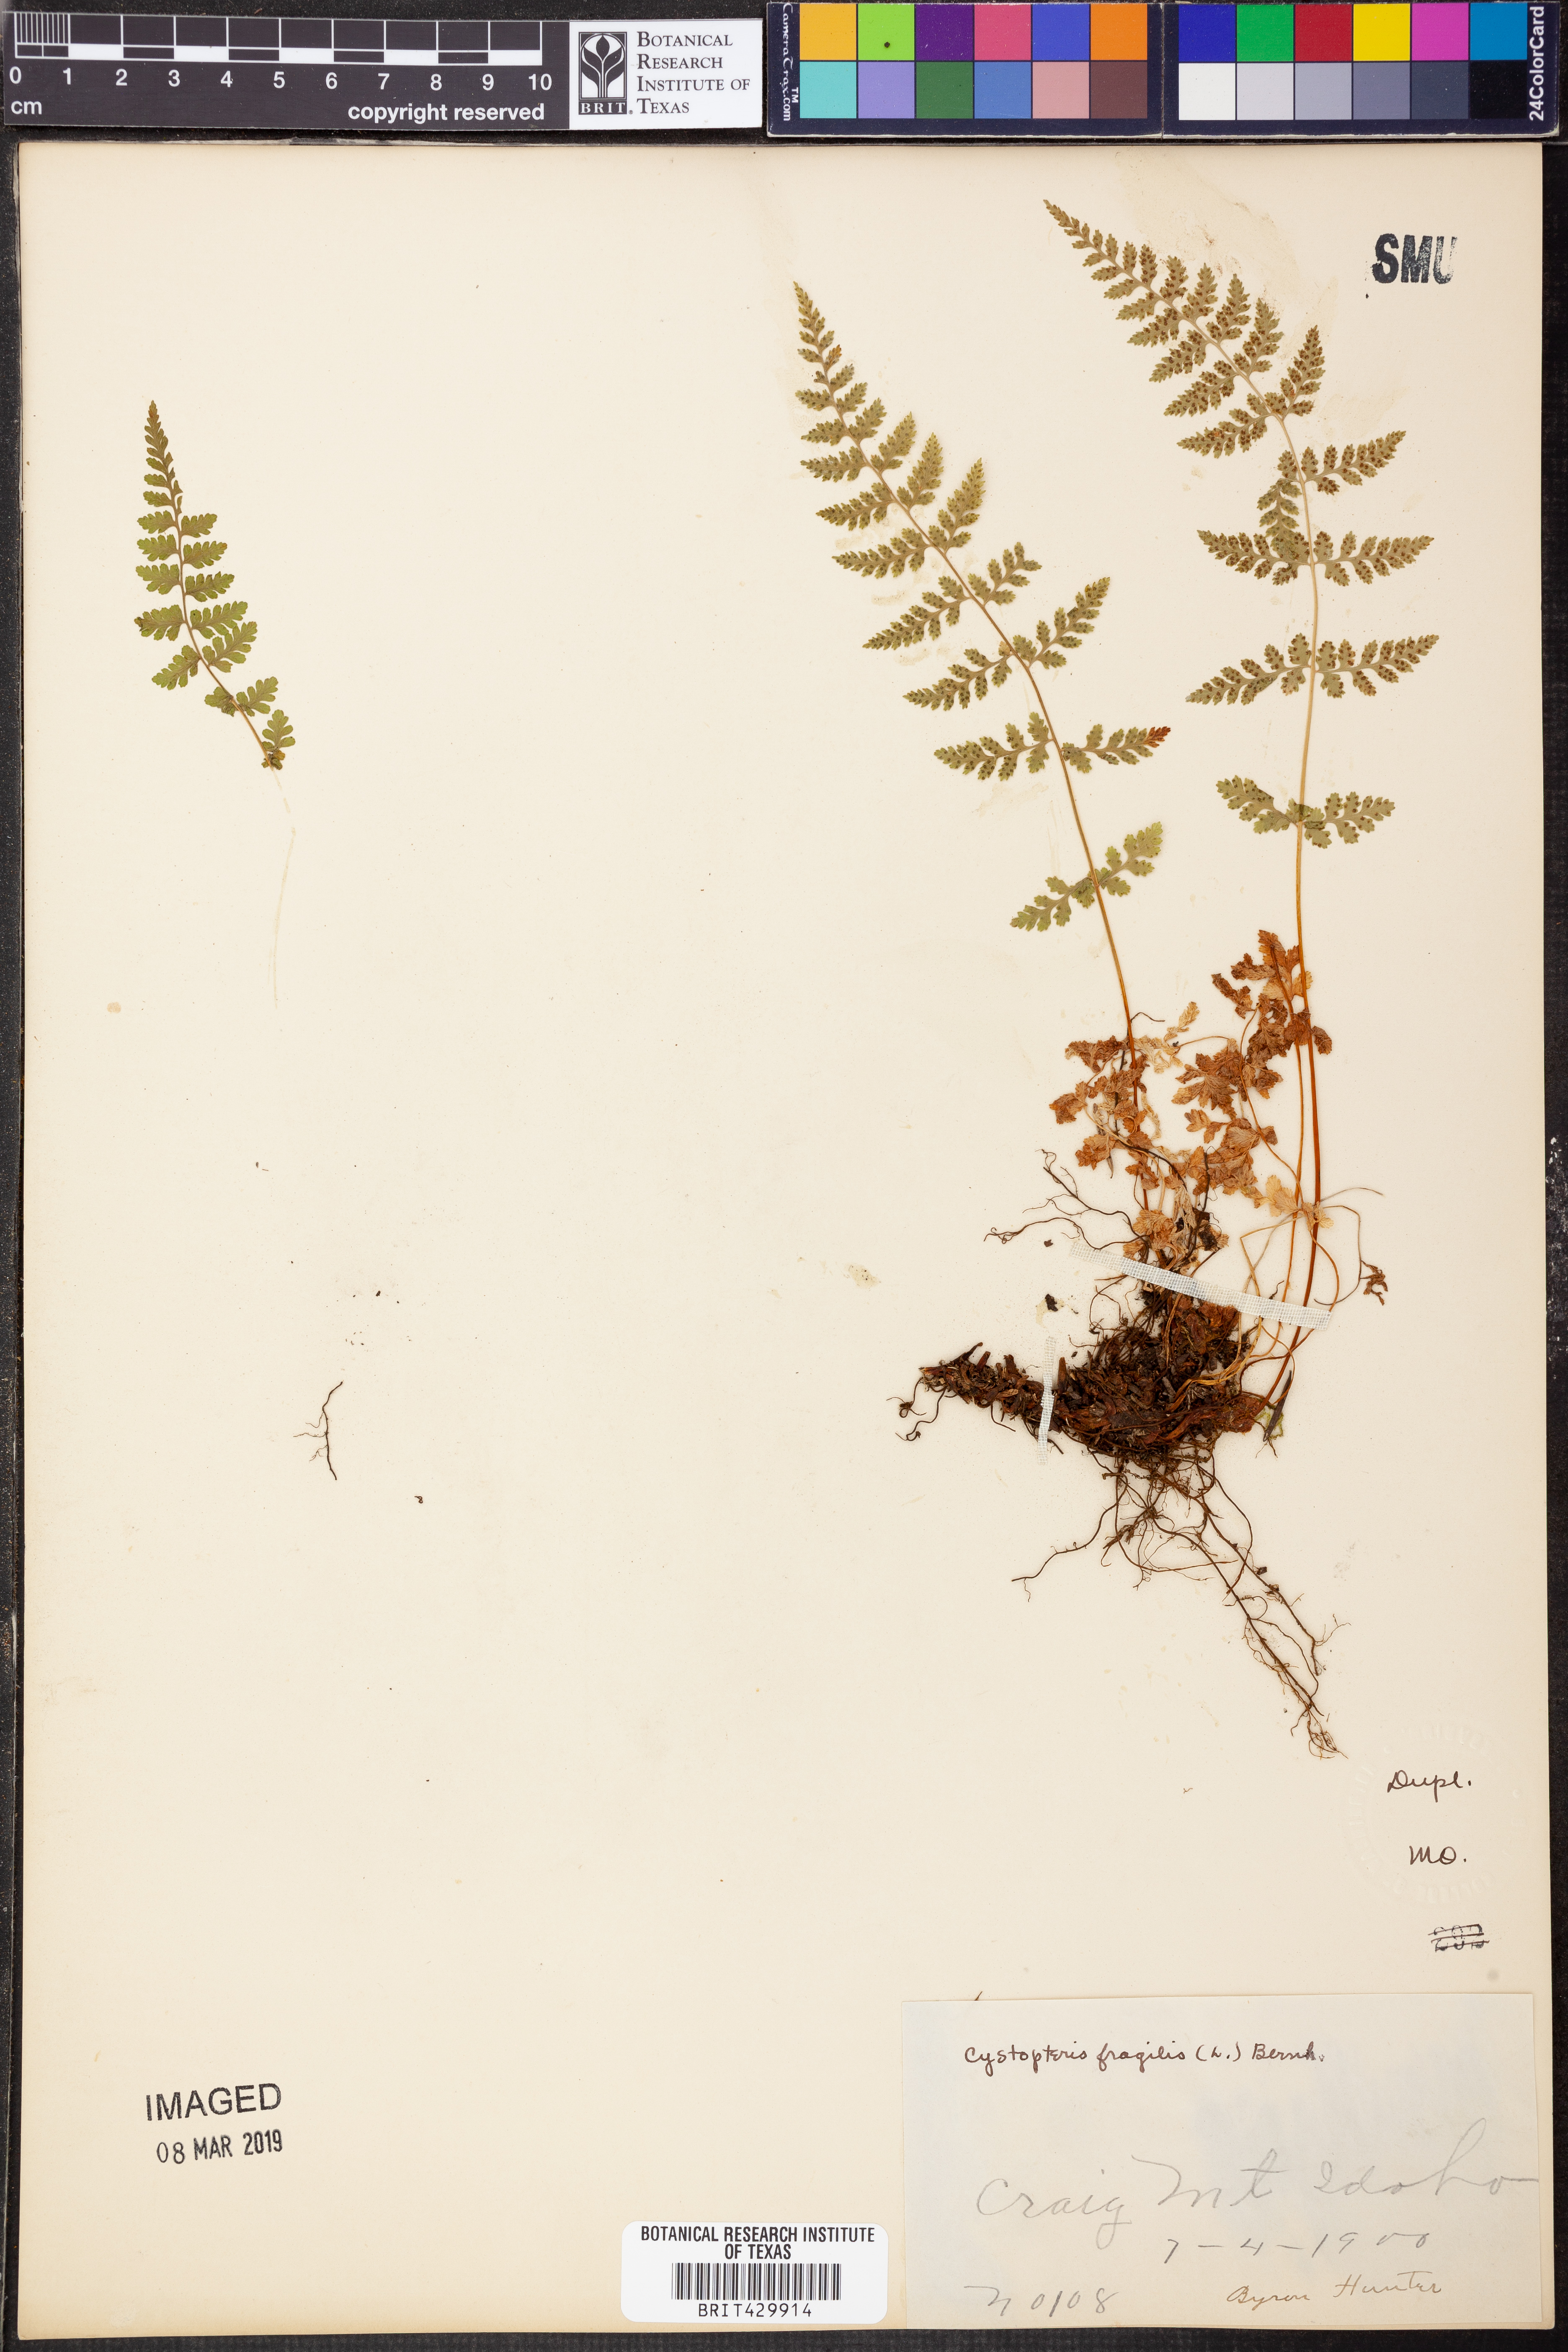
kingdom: Plantae
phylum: Tracheophyta
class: Polypodiopsida
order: Polypodiales
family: Cystopteridaceae
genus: Cystopteris
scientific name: Cystopteris fragilis
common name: Brittle bladder fern
